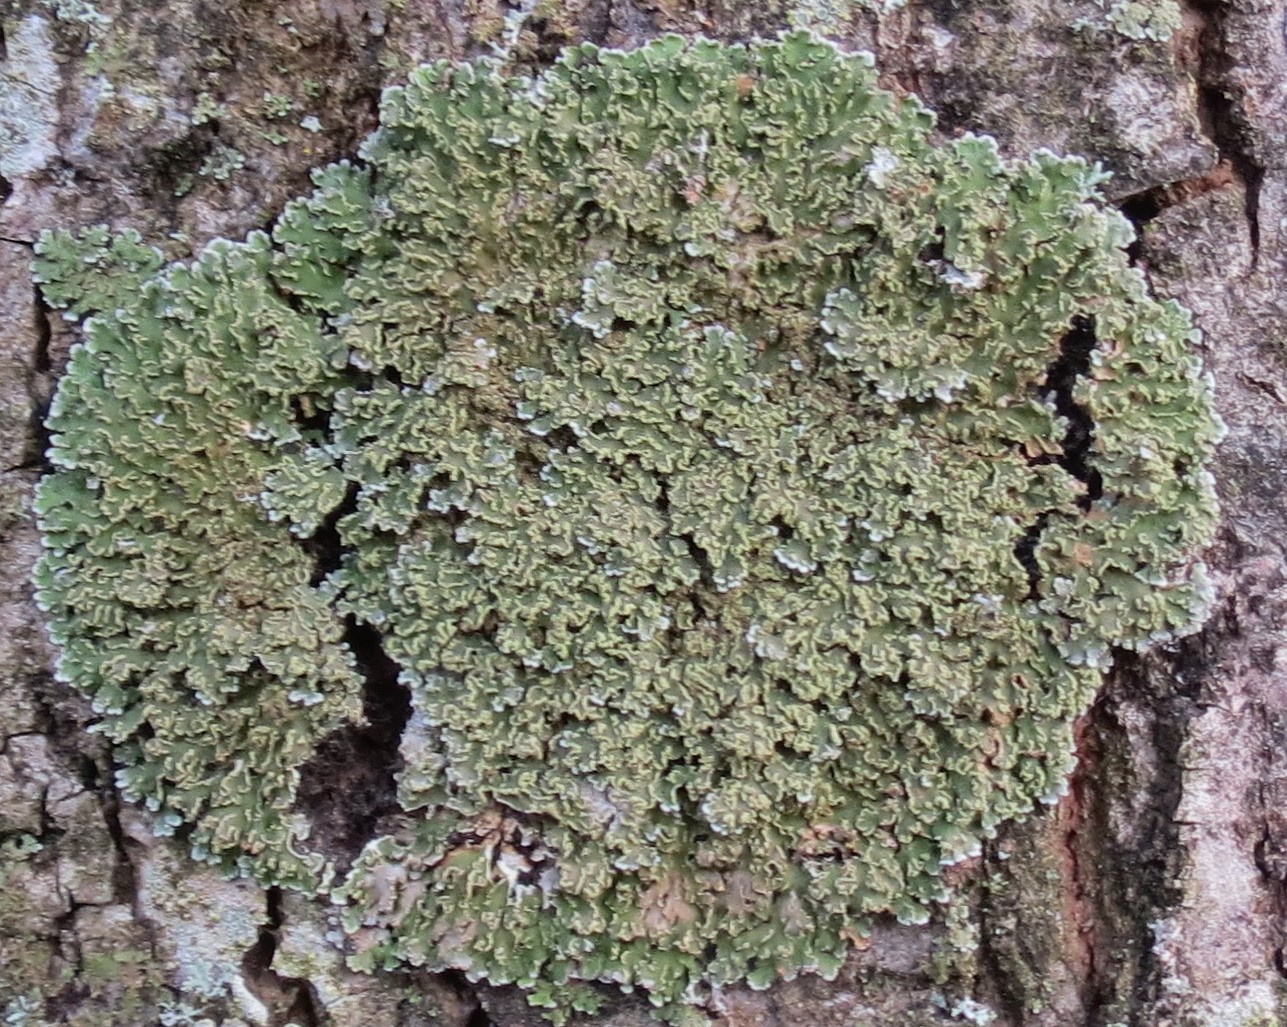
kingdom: Fungi
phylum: Ascomycota
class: Lecanoromycetes
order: Caliciales
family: Physciaceae
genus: Physconia
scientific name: Physconia enteroxantha
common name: grynet dugrosetlav
